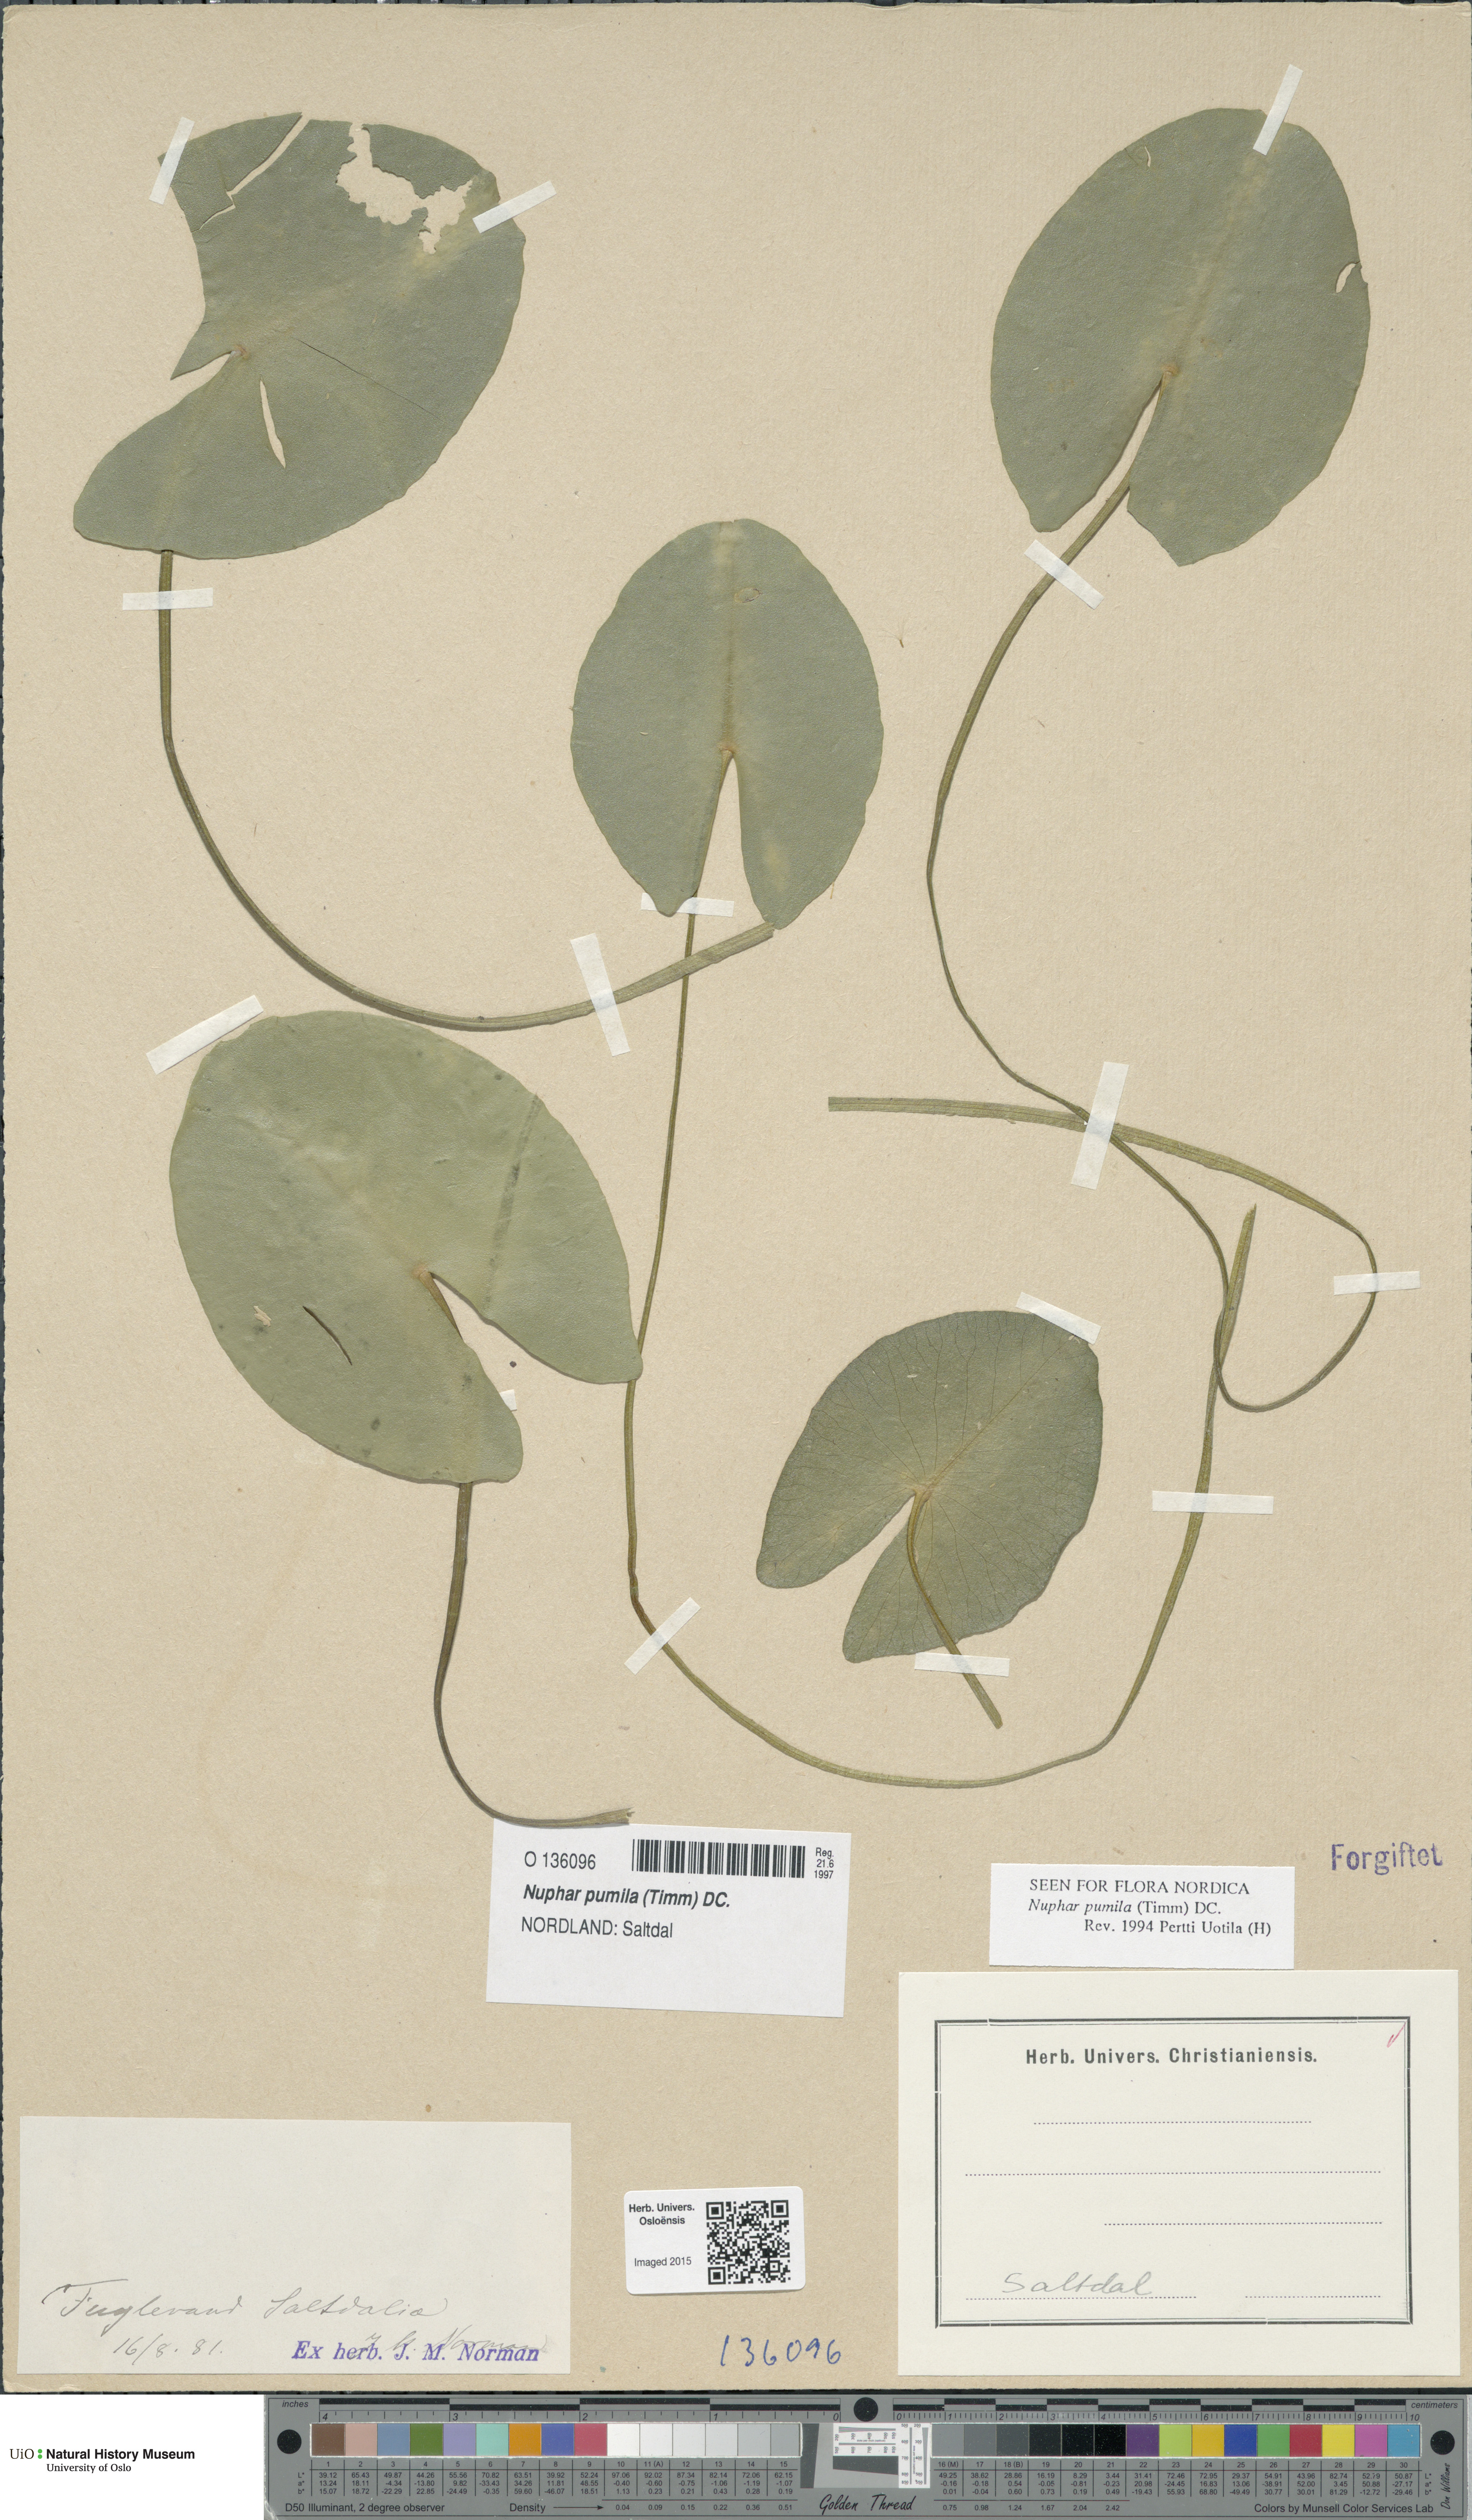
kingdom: Plantae
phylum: Tracheophyta
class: Magnoliopsida
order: Nymphaeales
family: Nymphaeaceae
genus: Nuphar
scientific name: Nuphar pumila
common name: Least water-lily
